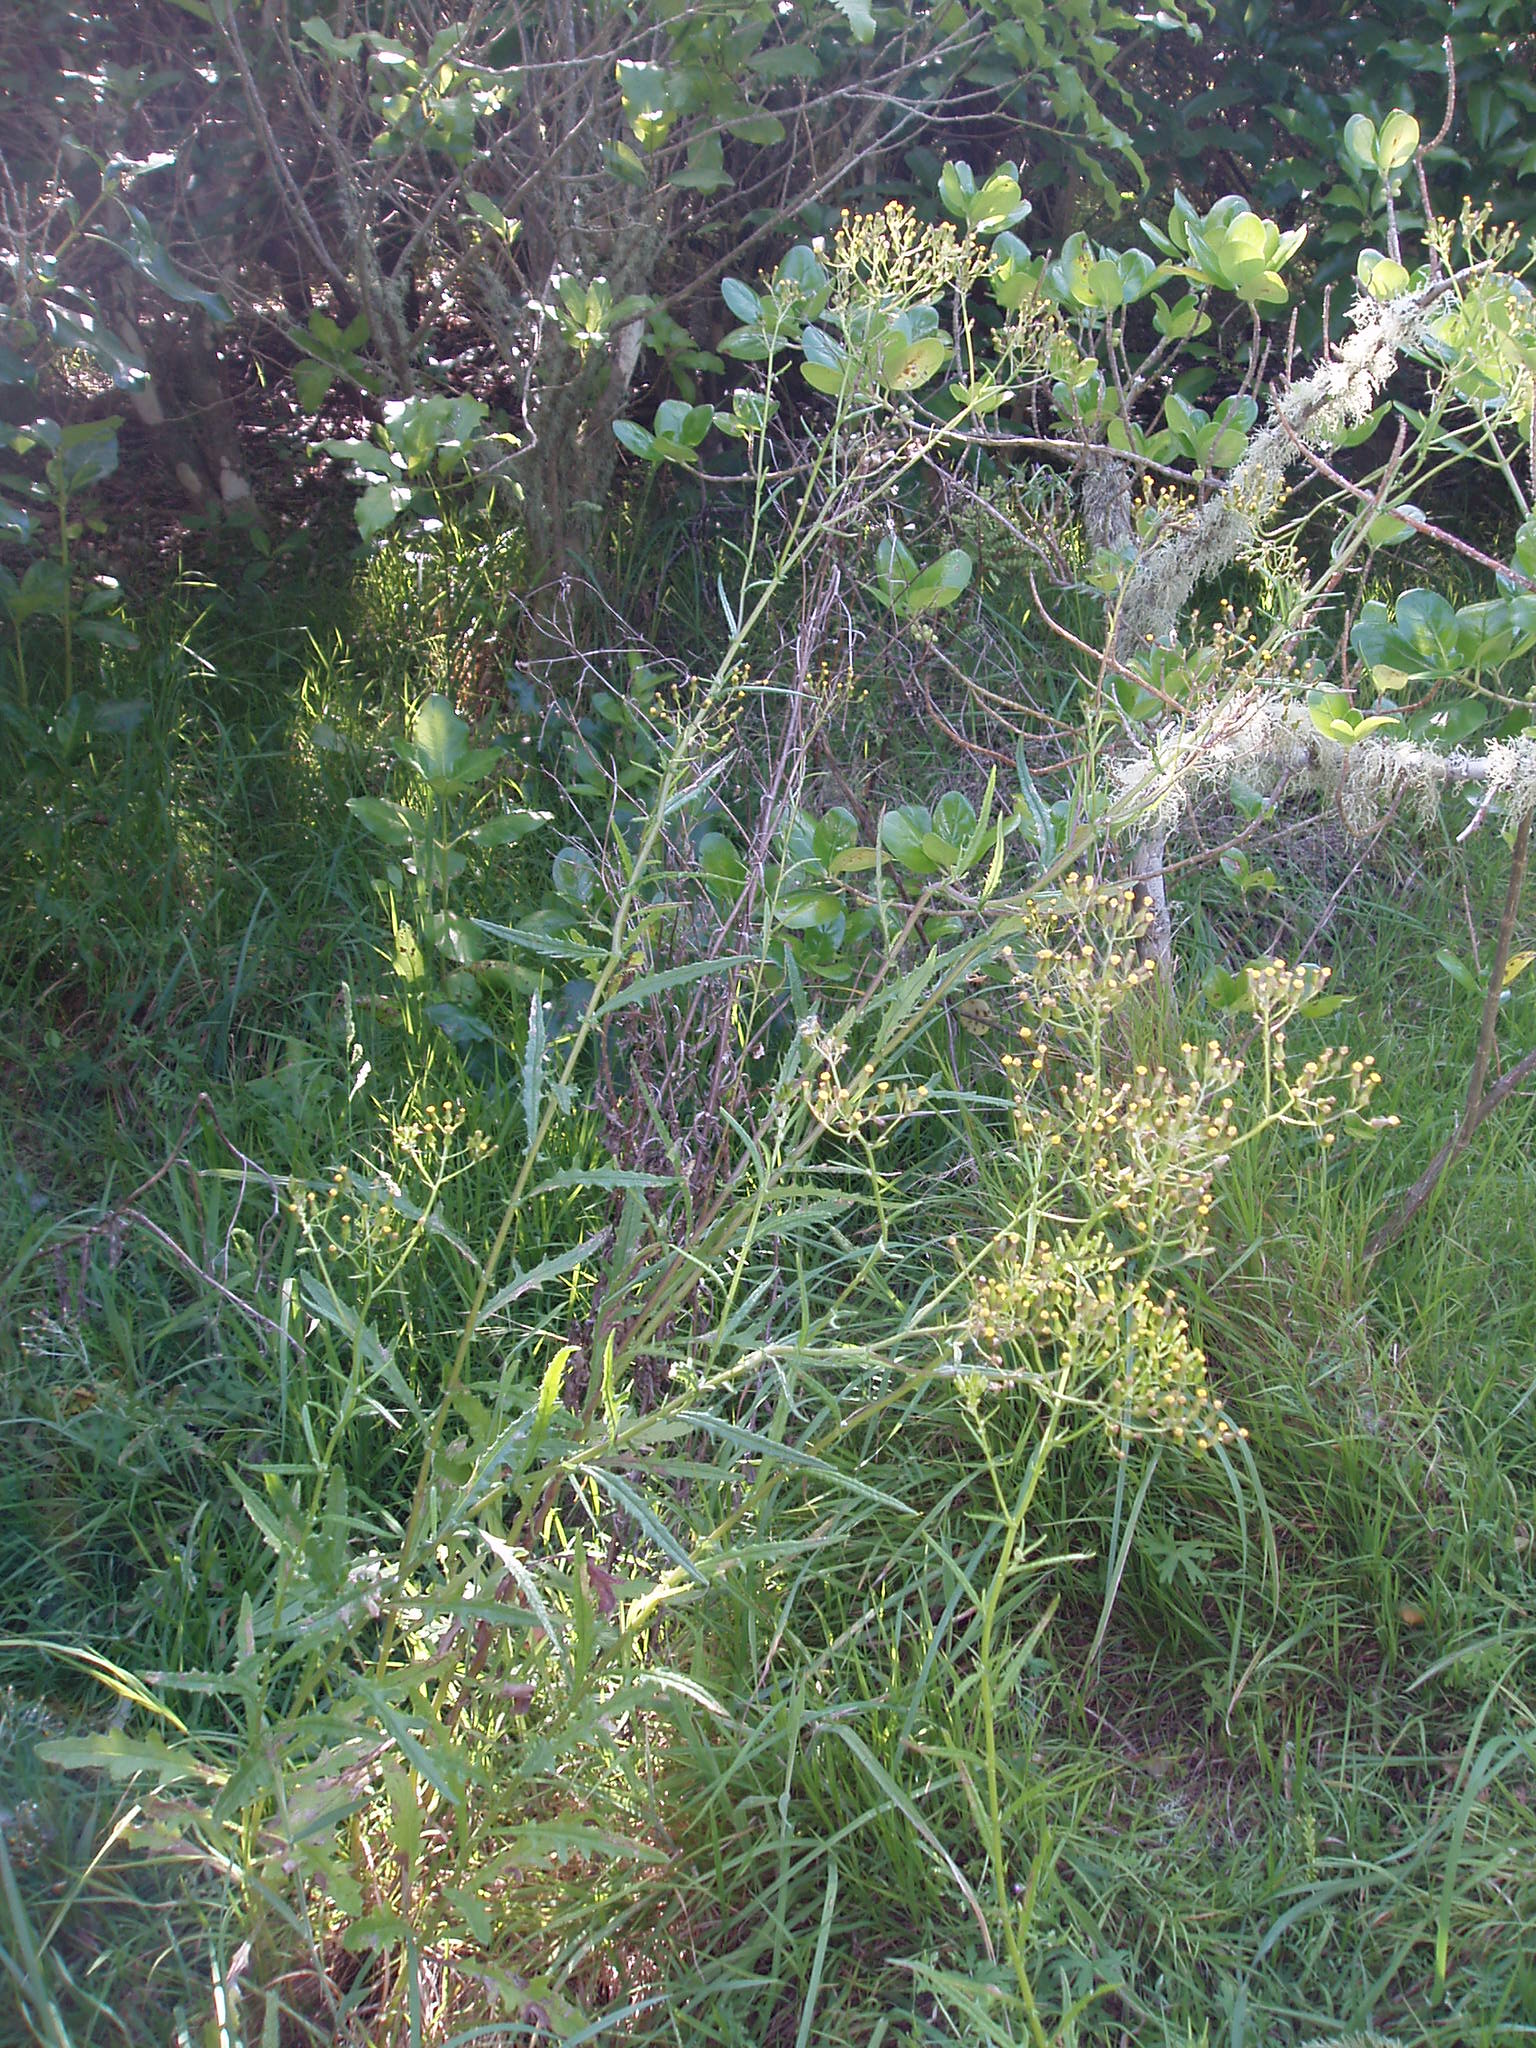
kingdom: Plantae
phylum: Tracheophyta
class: Magnoliopsida
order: Asterales
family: Asteraceae
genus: Senecio
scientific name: Senecio
